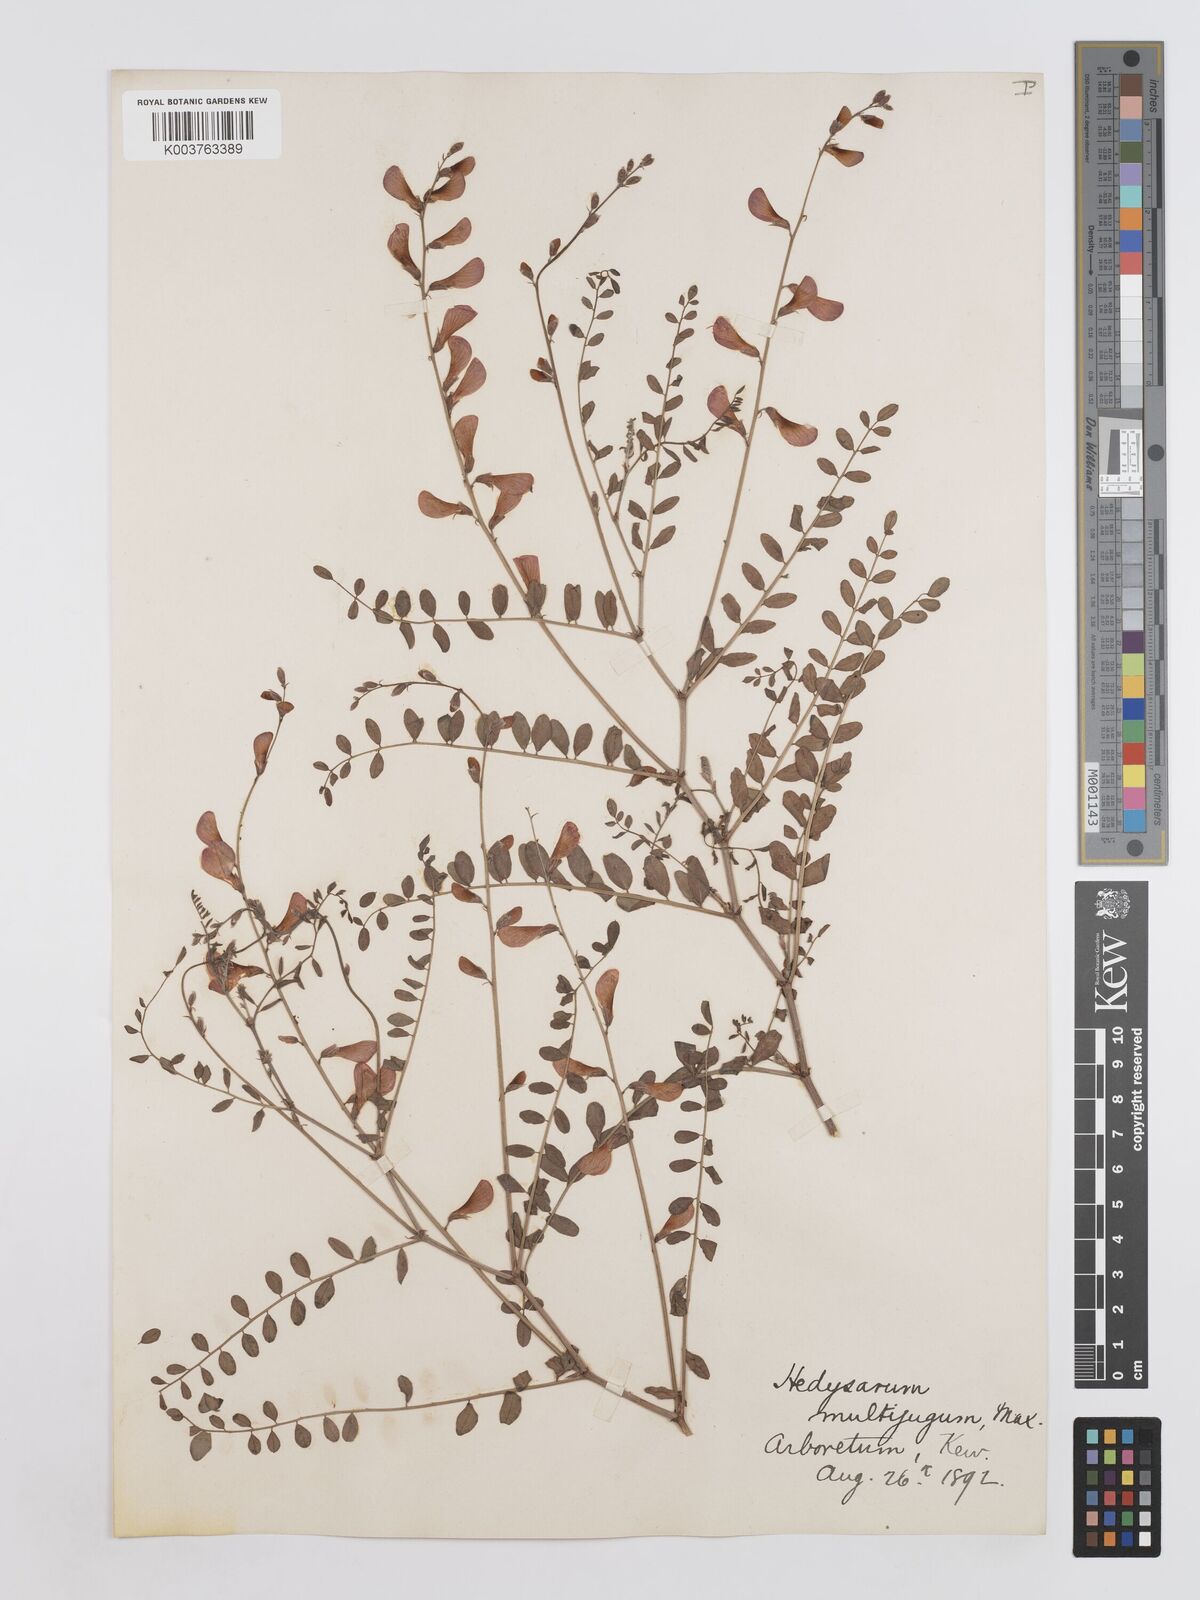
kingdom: Plantae
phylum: Tracheophyta
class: Magnoliopsida
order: Fabales
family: Fabaceae
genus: Corethrodendron
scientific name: Corethrodendron multijugum
